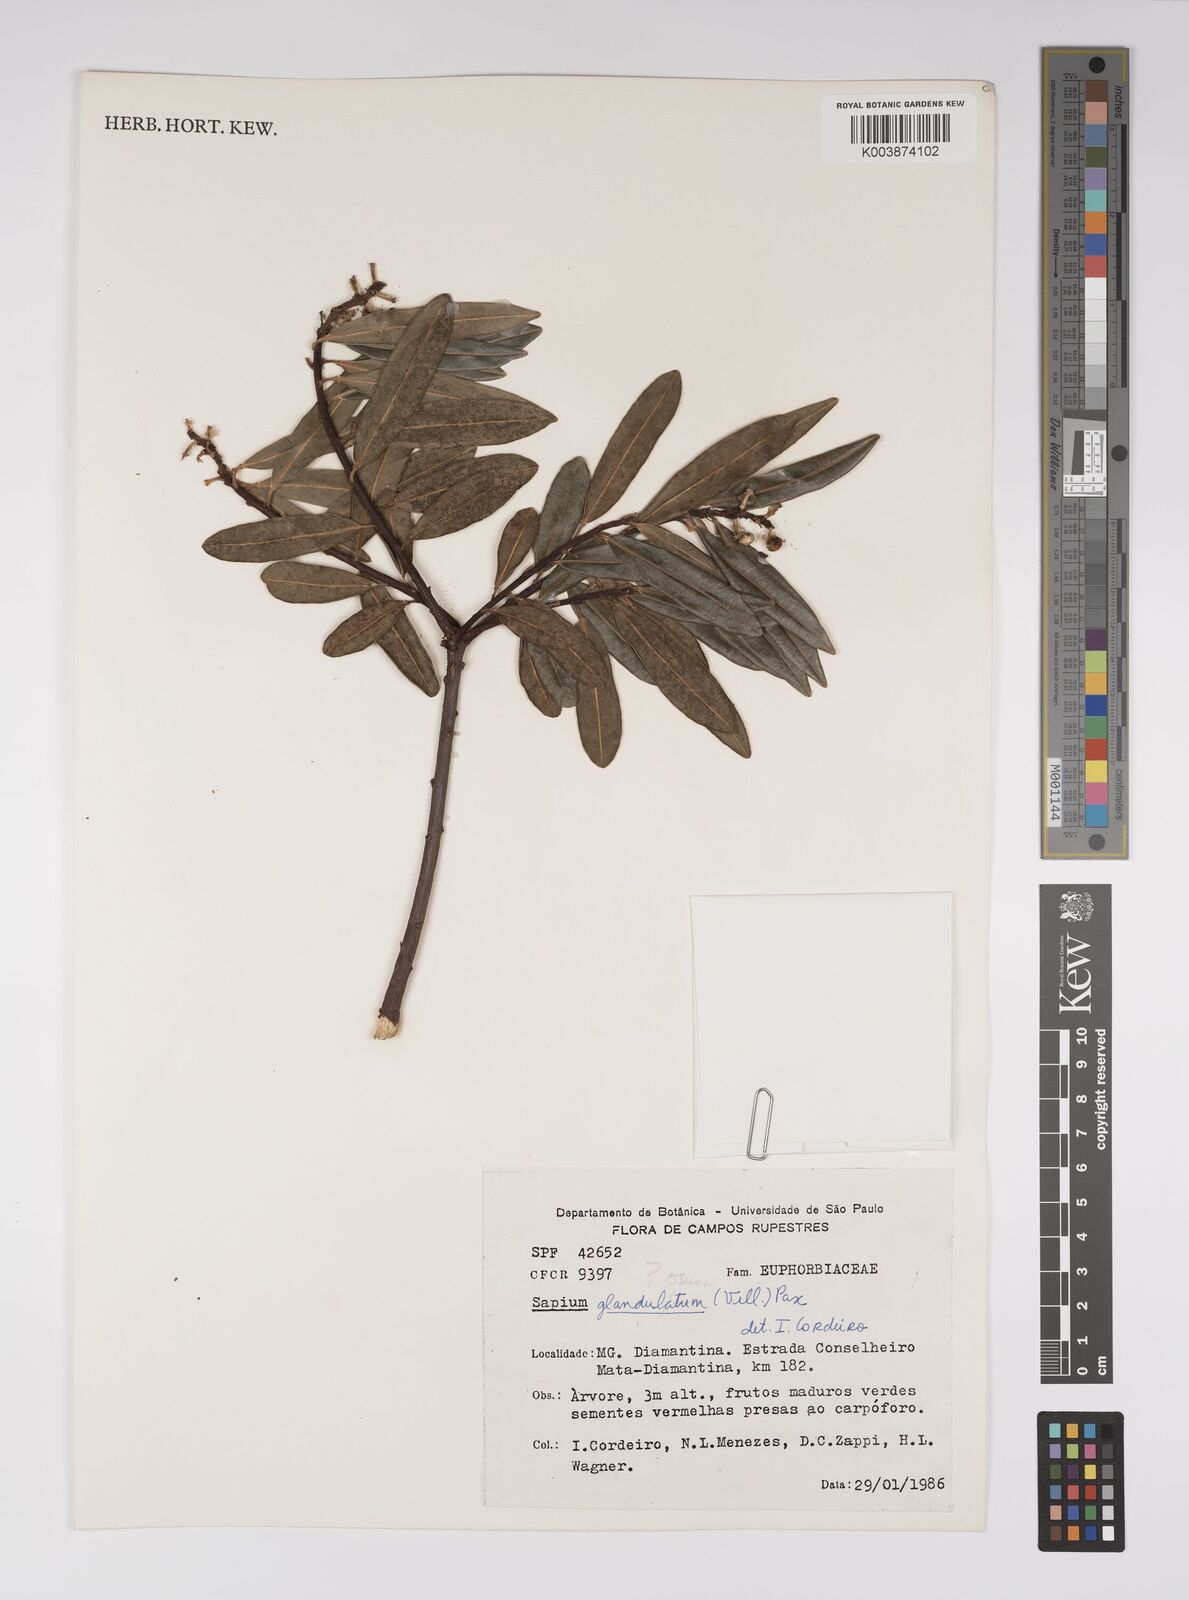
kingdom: Plantae
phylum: Tracheophyta
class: Magnoliopsida
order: Malpighiales
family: Euphorbiaceae
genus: Sapium
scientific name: Sapium glandulosum
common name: Milktree
